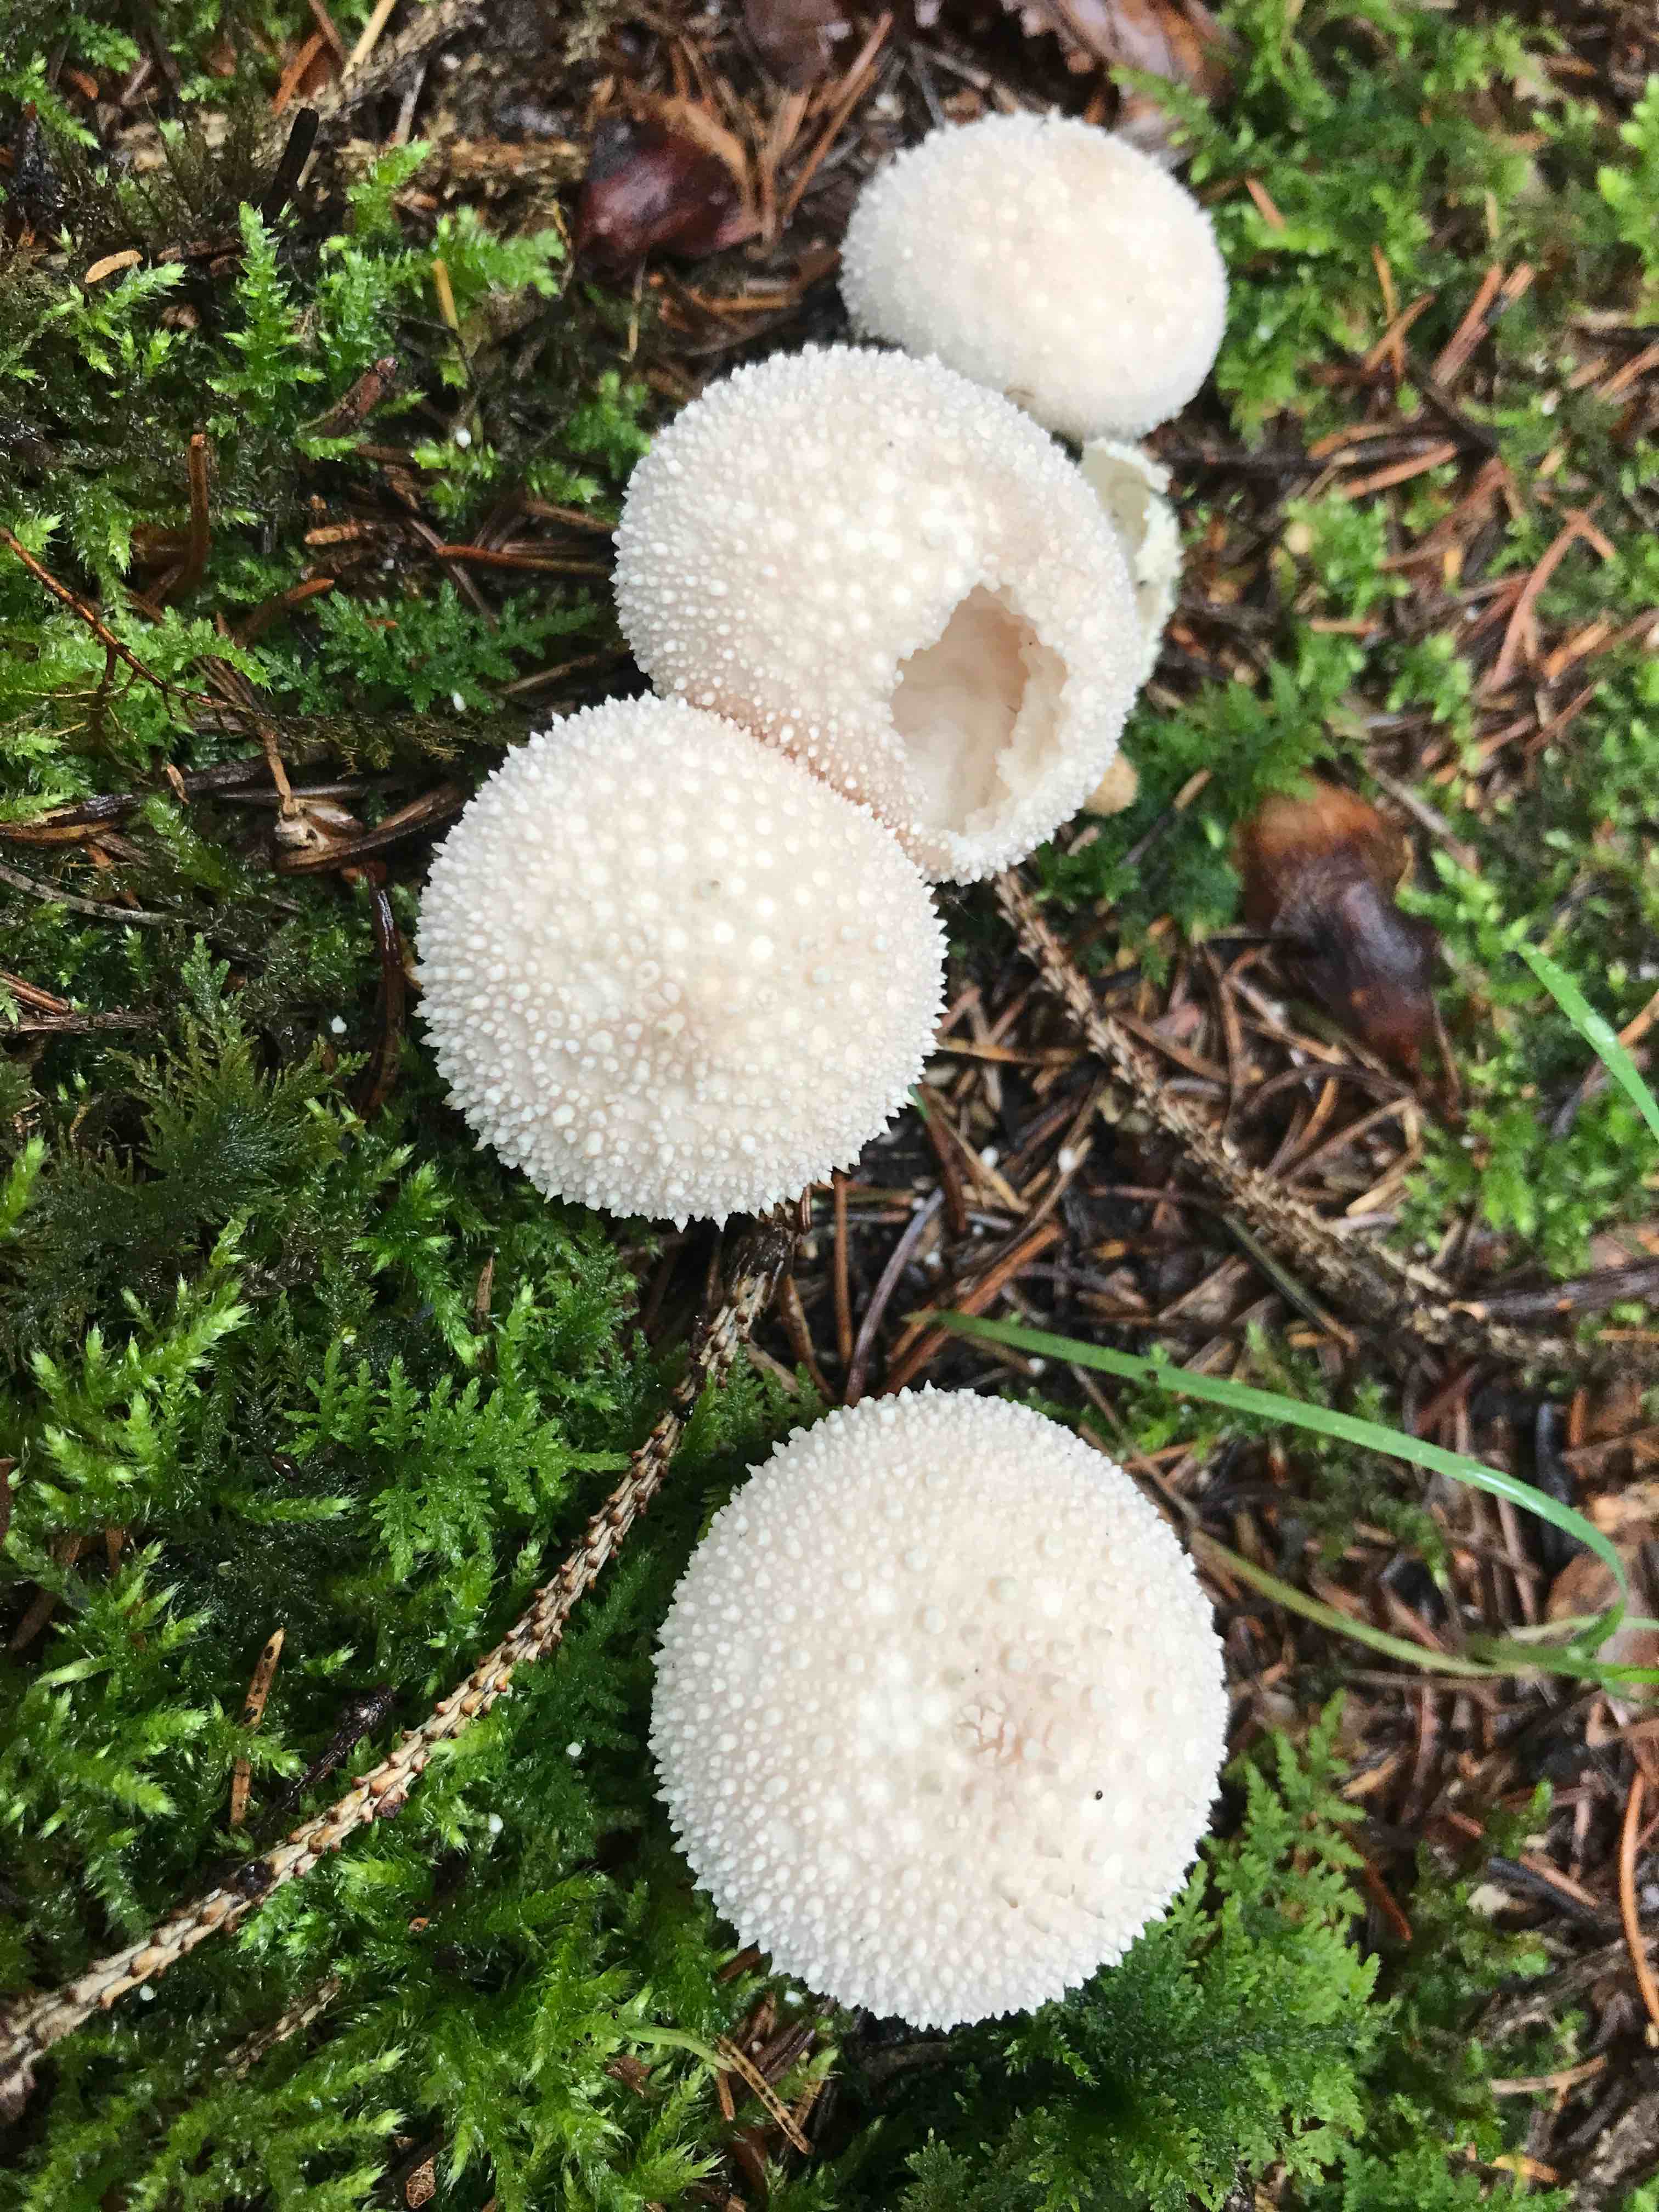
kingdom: Fungi
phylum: Basidiomycota
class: Agaricomycetes
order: Agaricales
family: Lycoperdaceae
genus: Lycoperdon
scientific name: Lycoperdon perlatum
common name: krystal-støvbold
